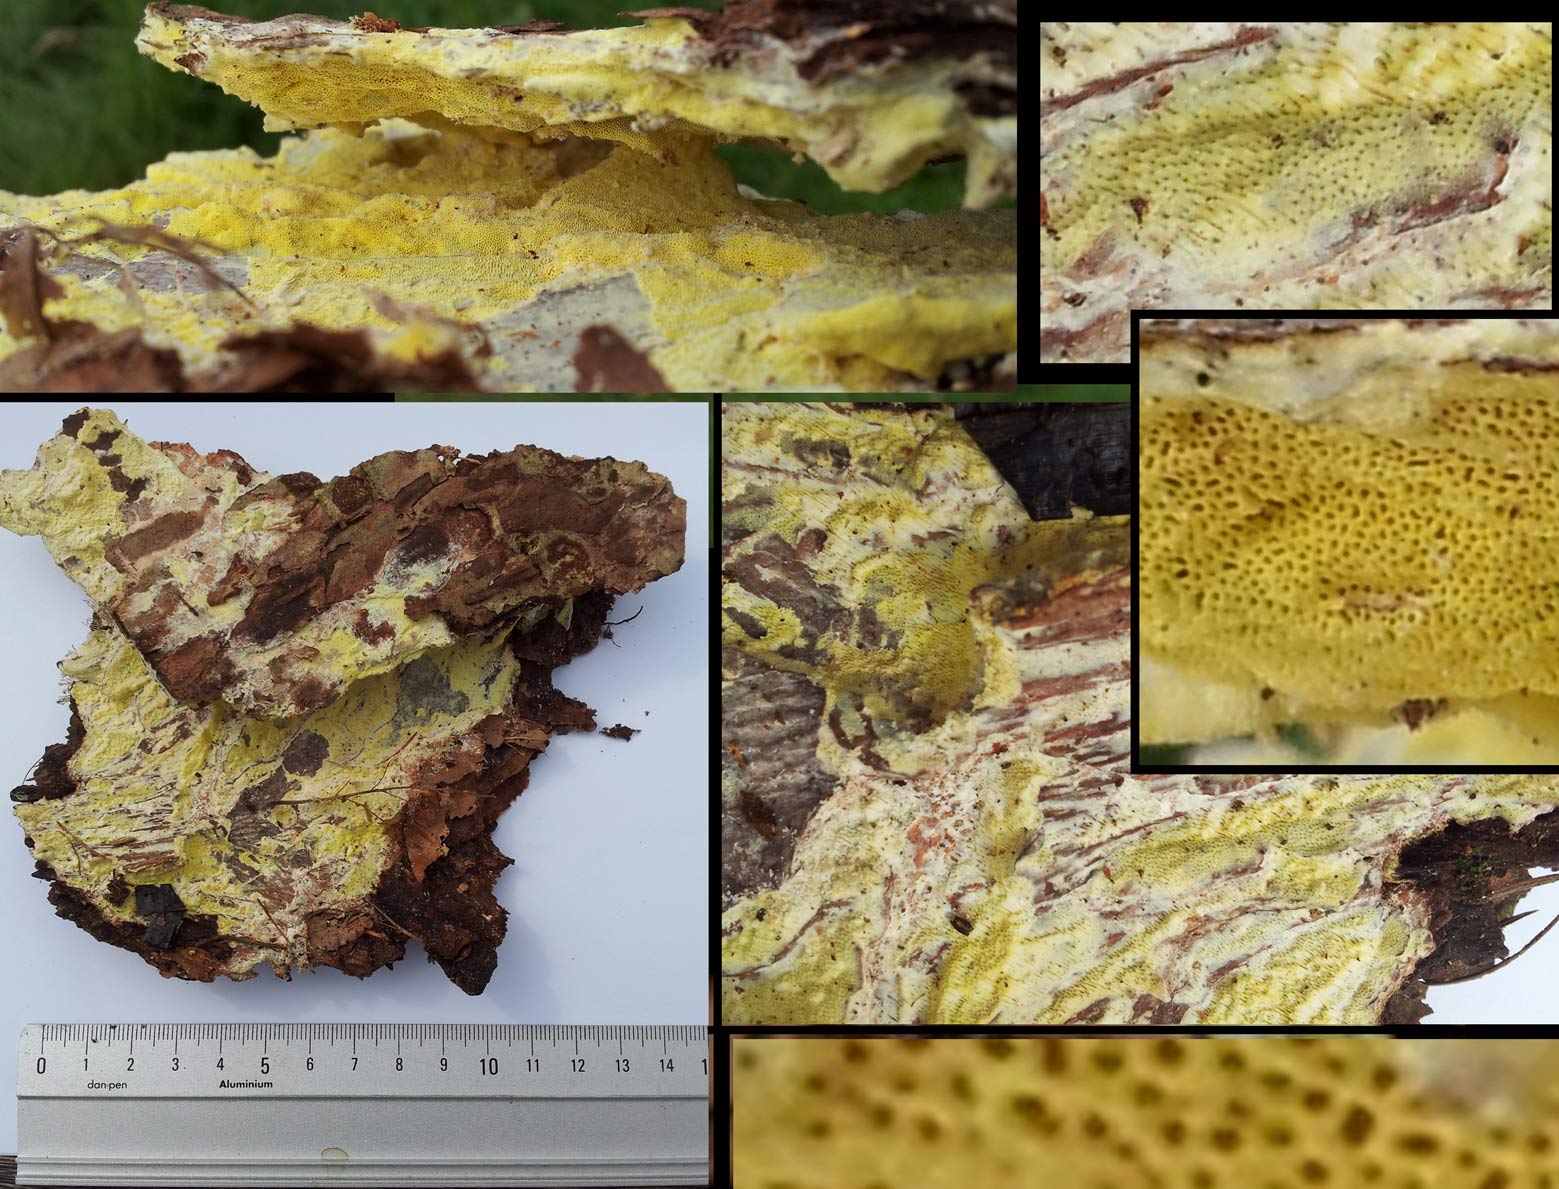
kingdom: Fungi
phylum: Basidiomycota
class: Agaricomycetes
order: Polyporales
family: Fomitopsidaceae
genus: Daedalea
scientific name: Daedalea xantha
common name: gul sejporesvamp
